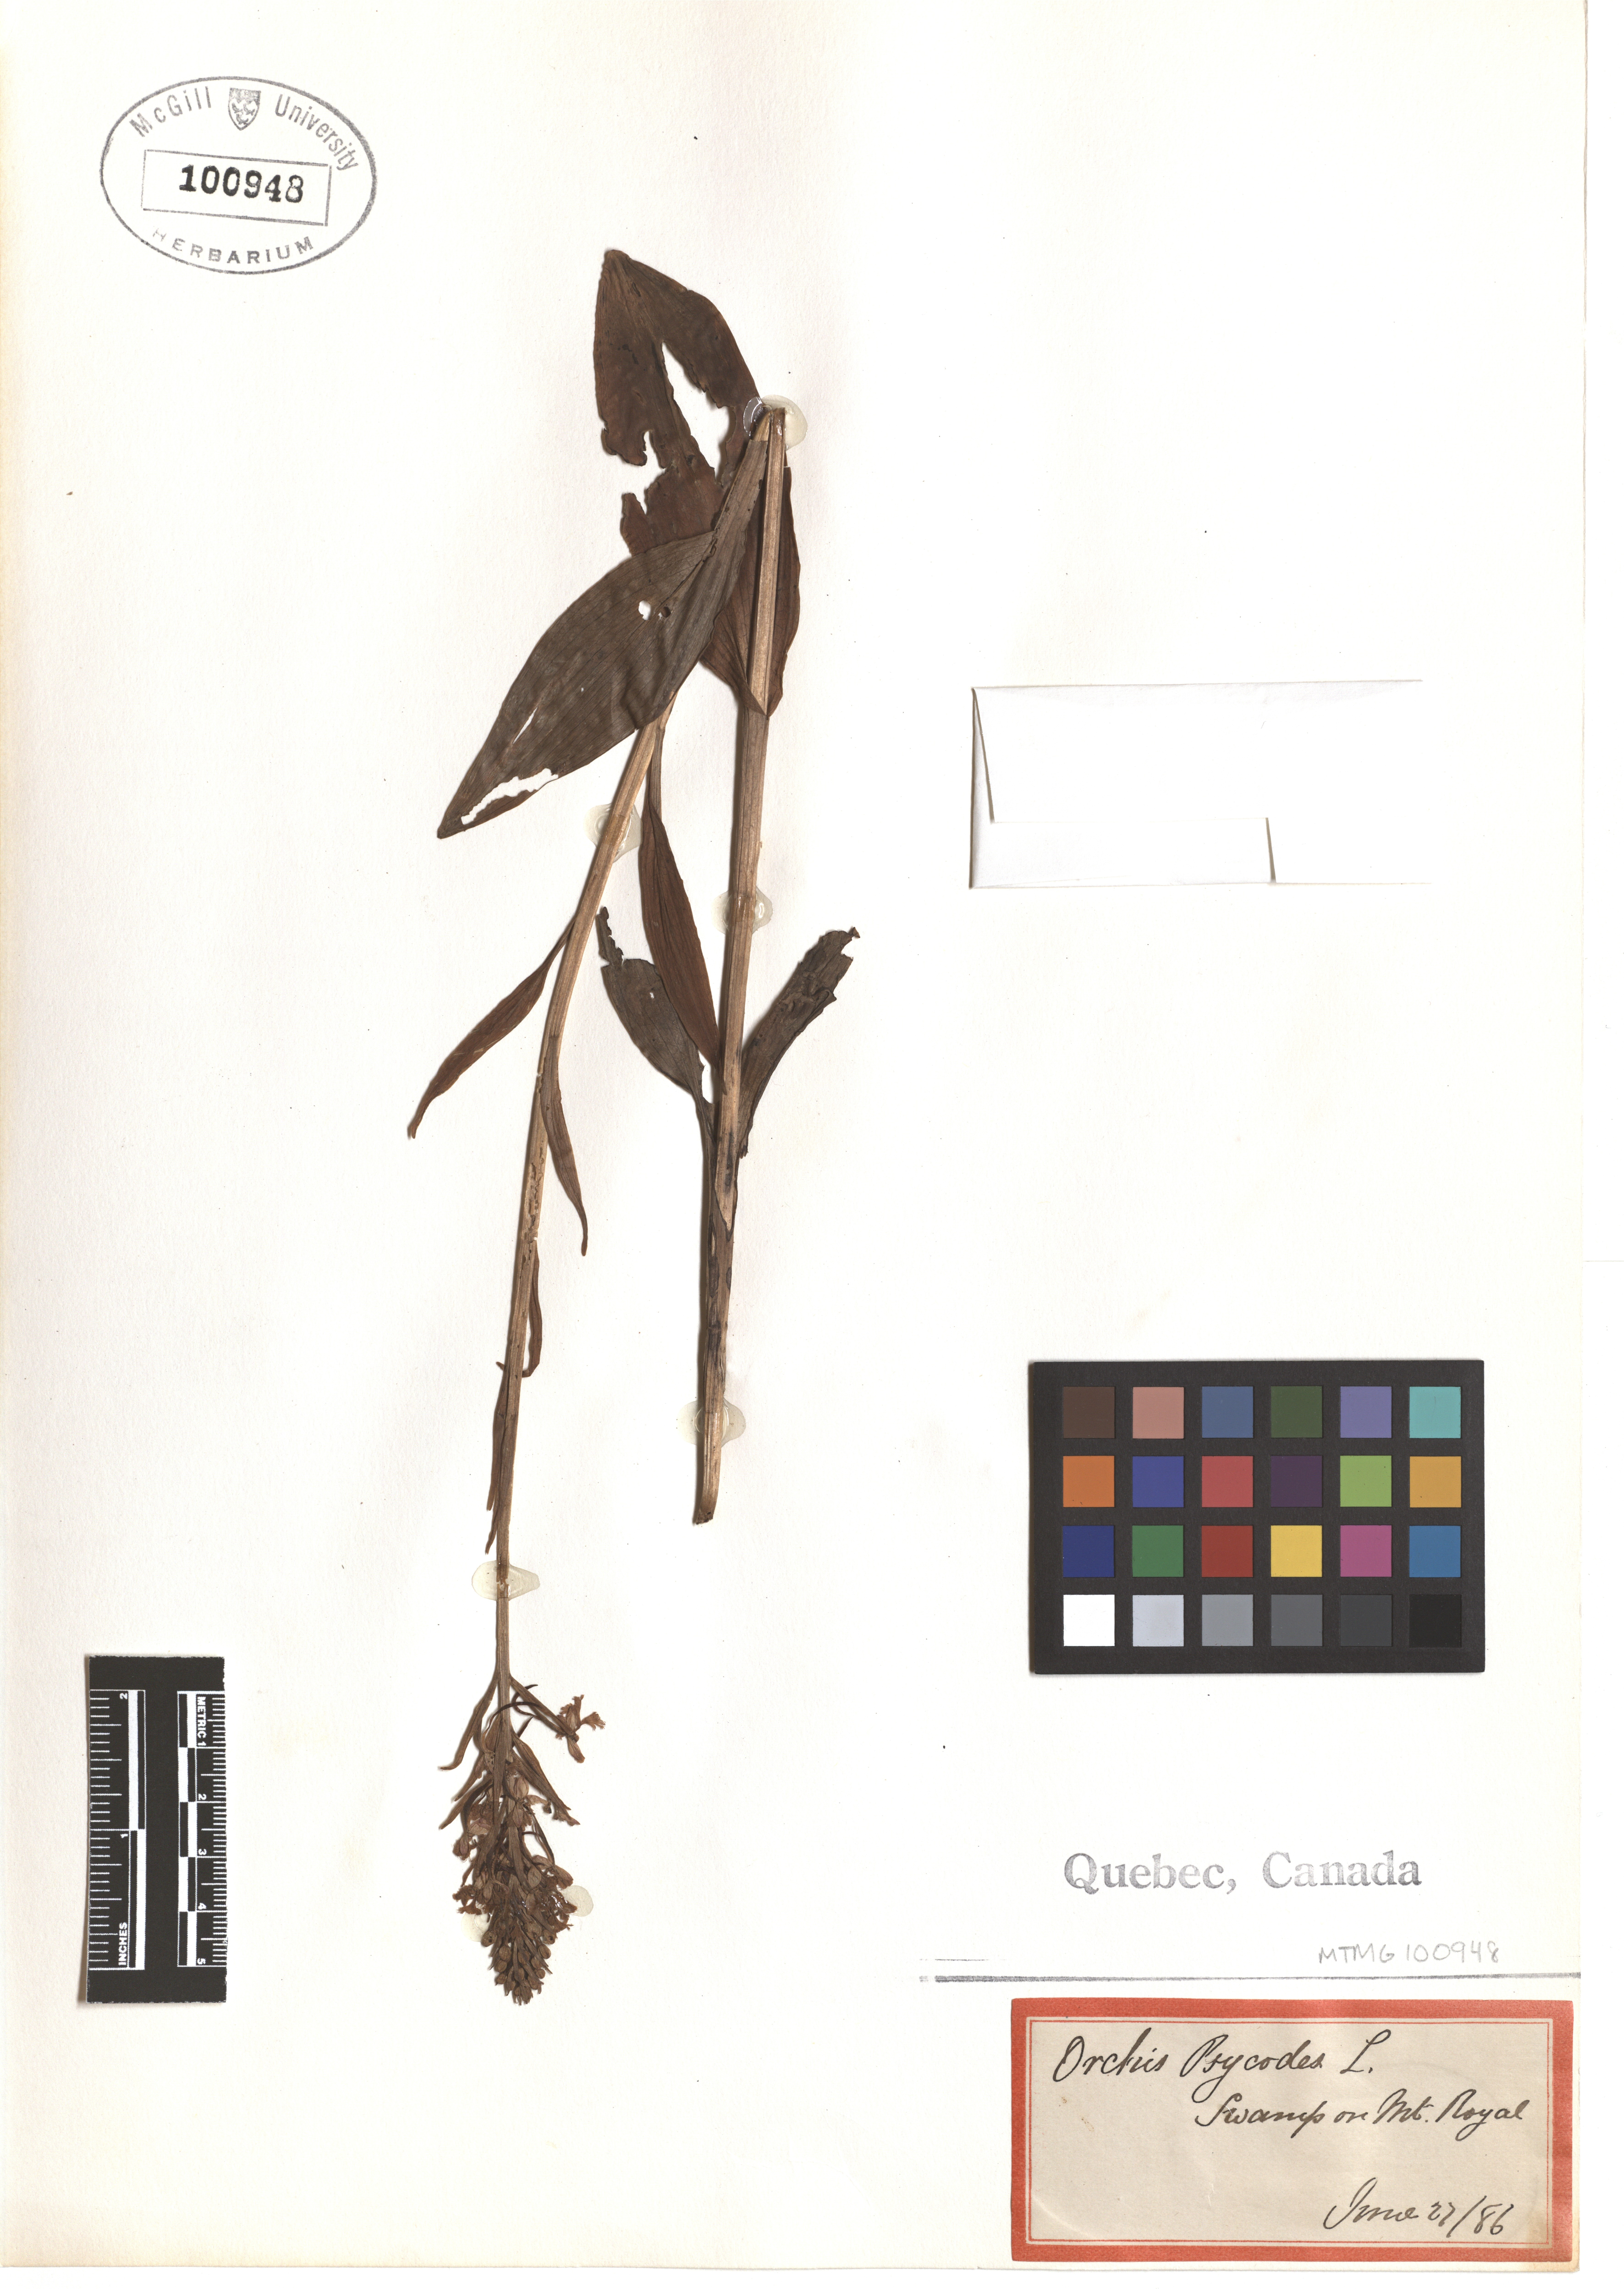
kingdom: Plantae
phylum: Tracheophyta
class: Liliopsida
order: Asparagales
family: Orchidaceae
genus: Platanthera
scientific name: Platanthera psycodes
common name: Lesser purple fringed orchid
